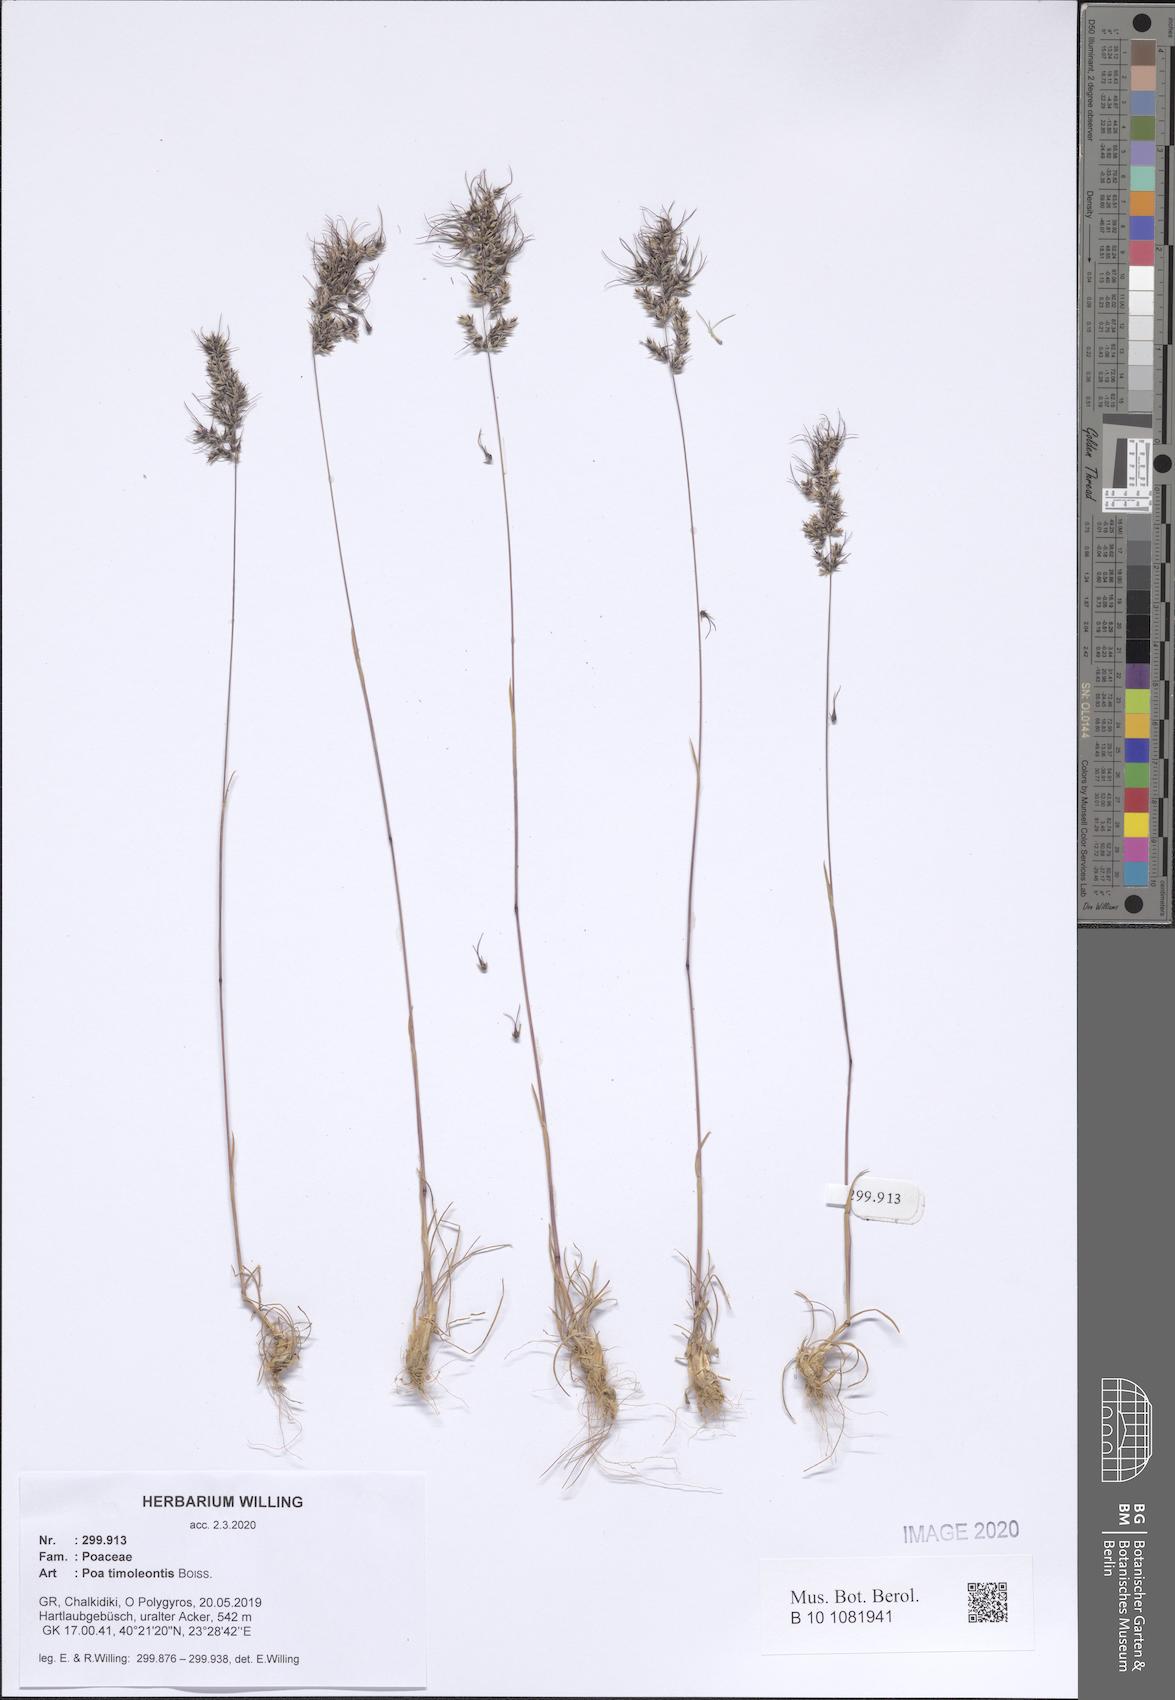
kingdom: Plantae
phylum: Tracheophyta
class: Liliopsida
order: Poales
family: Poaceae
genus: Poa
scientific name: Poa timoleontis
